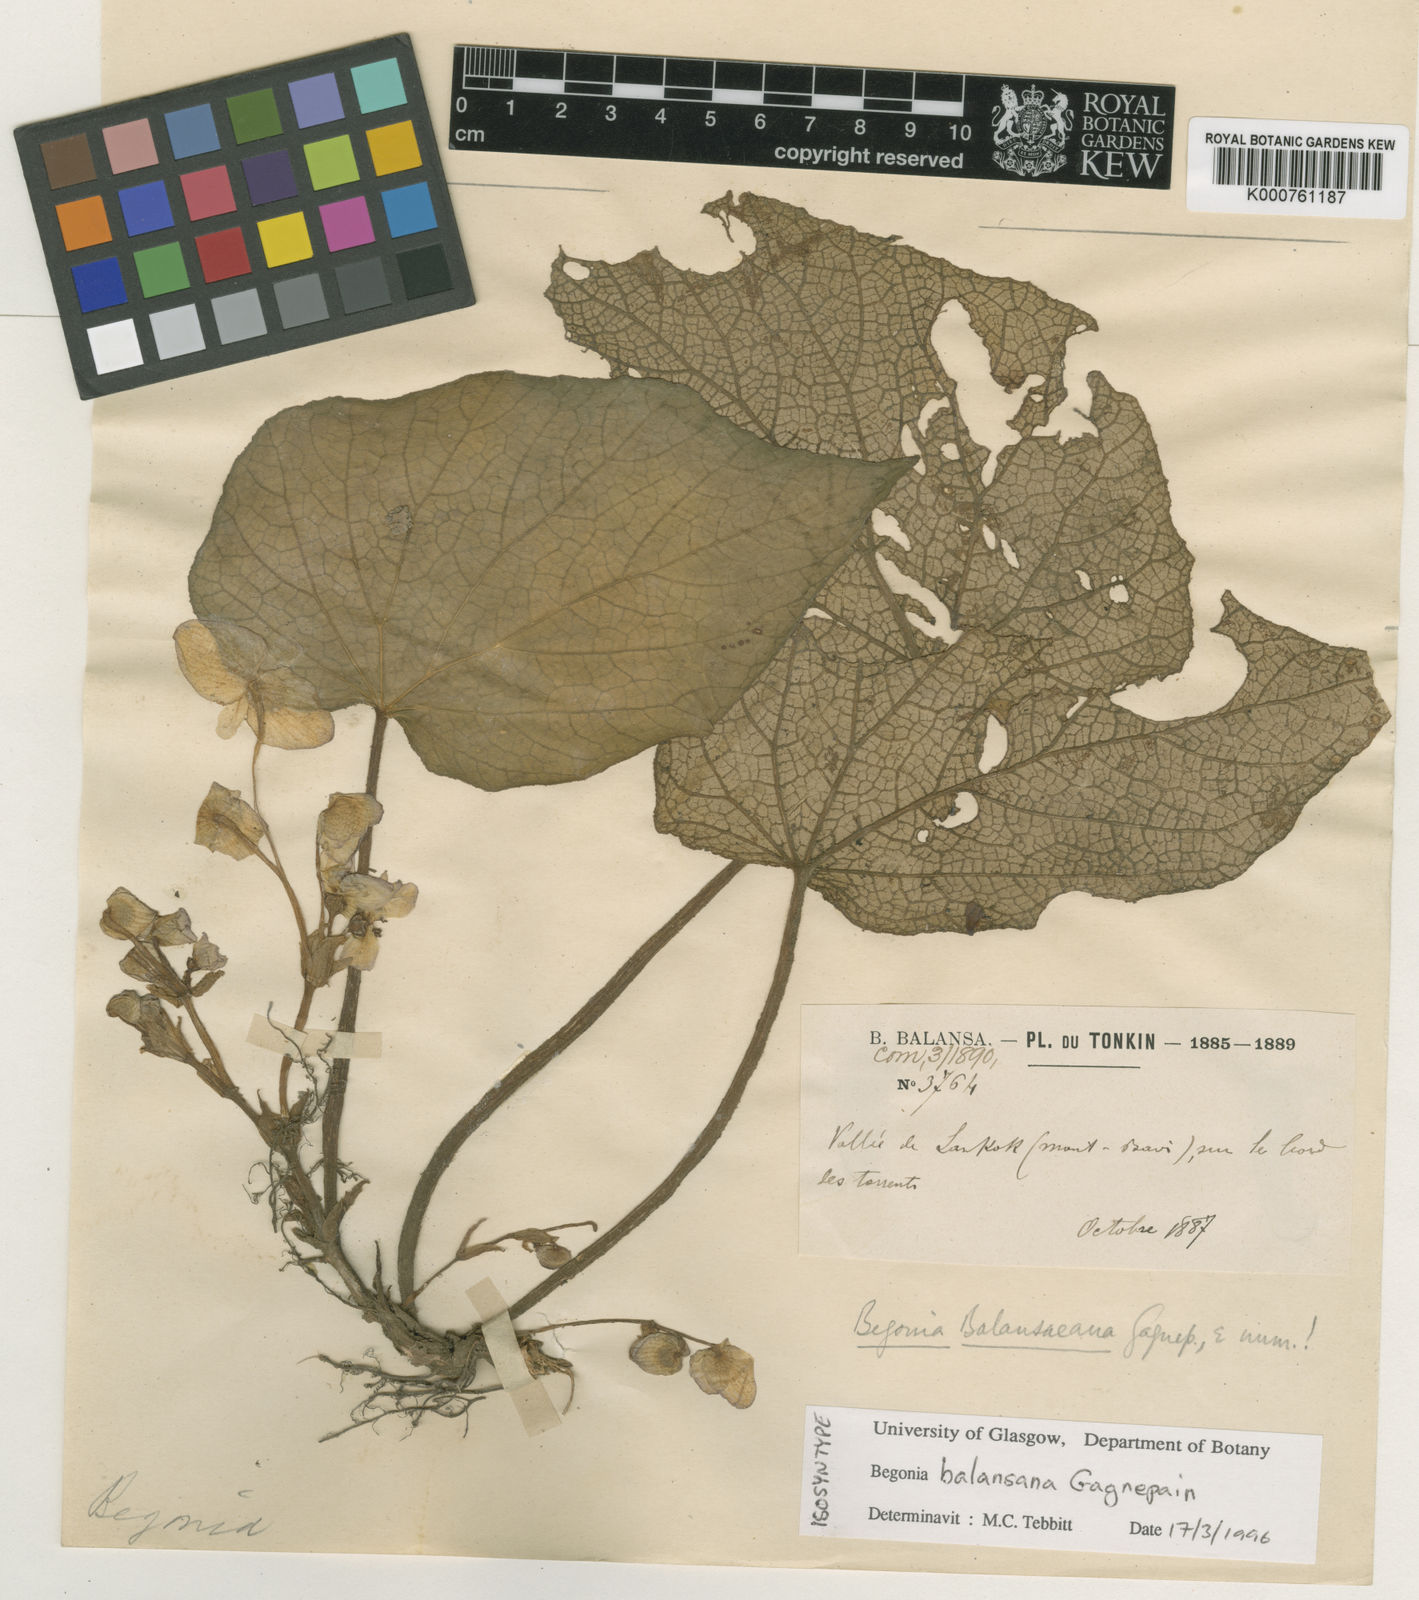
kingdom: Plantae
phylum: Tracheophyta
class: Magnoliopsida
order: Cucurbitales
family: Begoniaceae
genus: Begonia
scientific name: Begonia balansana
